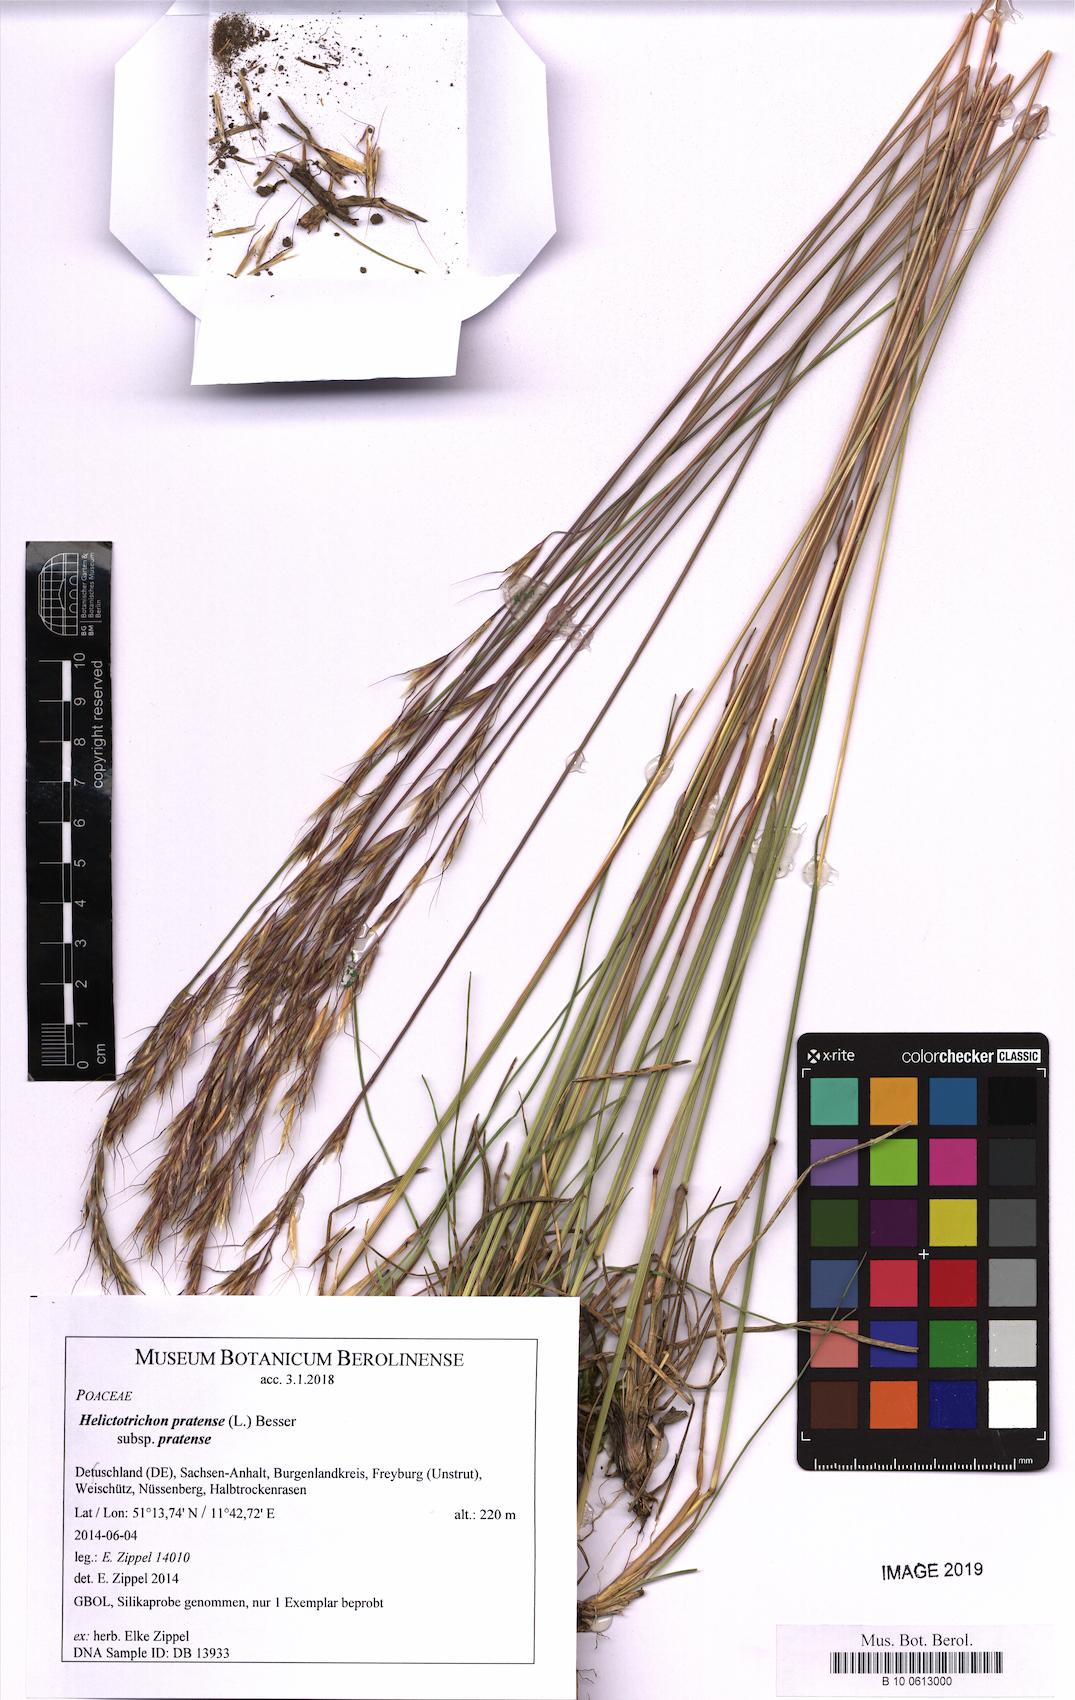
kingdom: Plantae
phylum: Tracheophyta
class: Liliopsida
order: Poales
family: Poaceae
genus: Helictotrichon
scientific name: Helictotrichon pratense
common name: Meadow oat-grass
